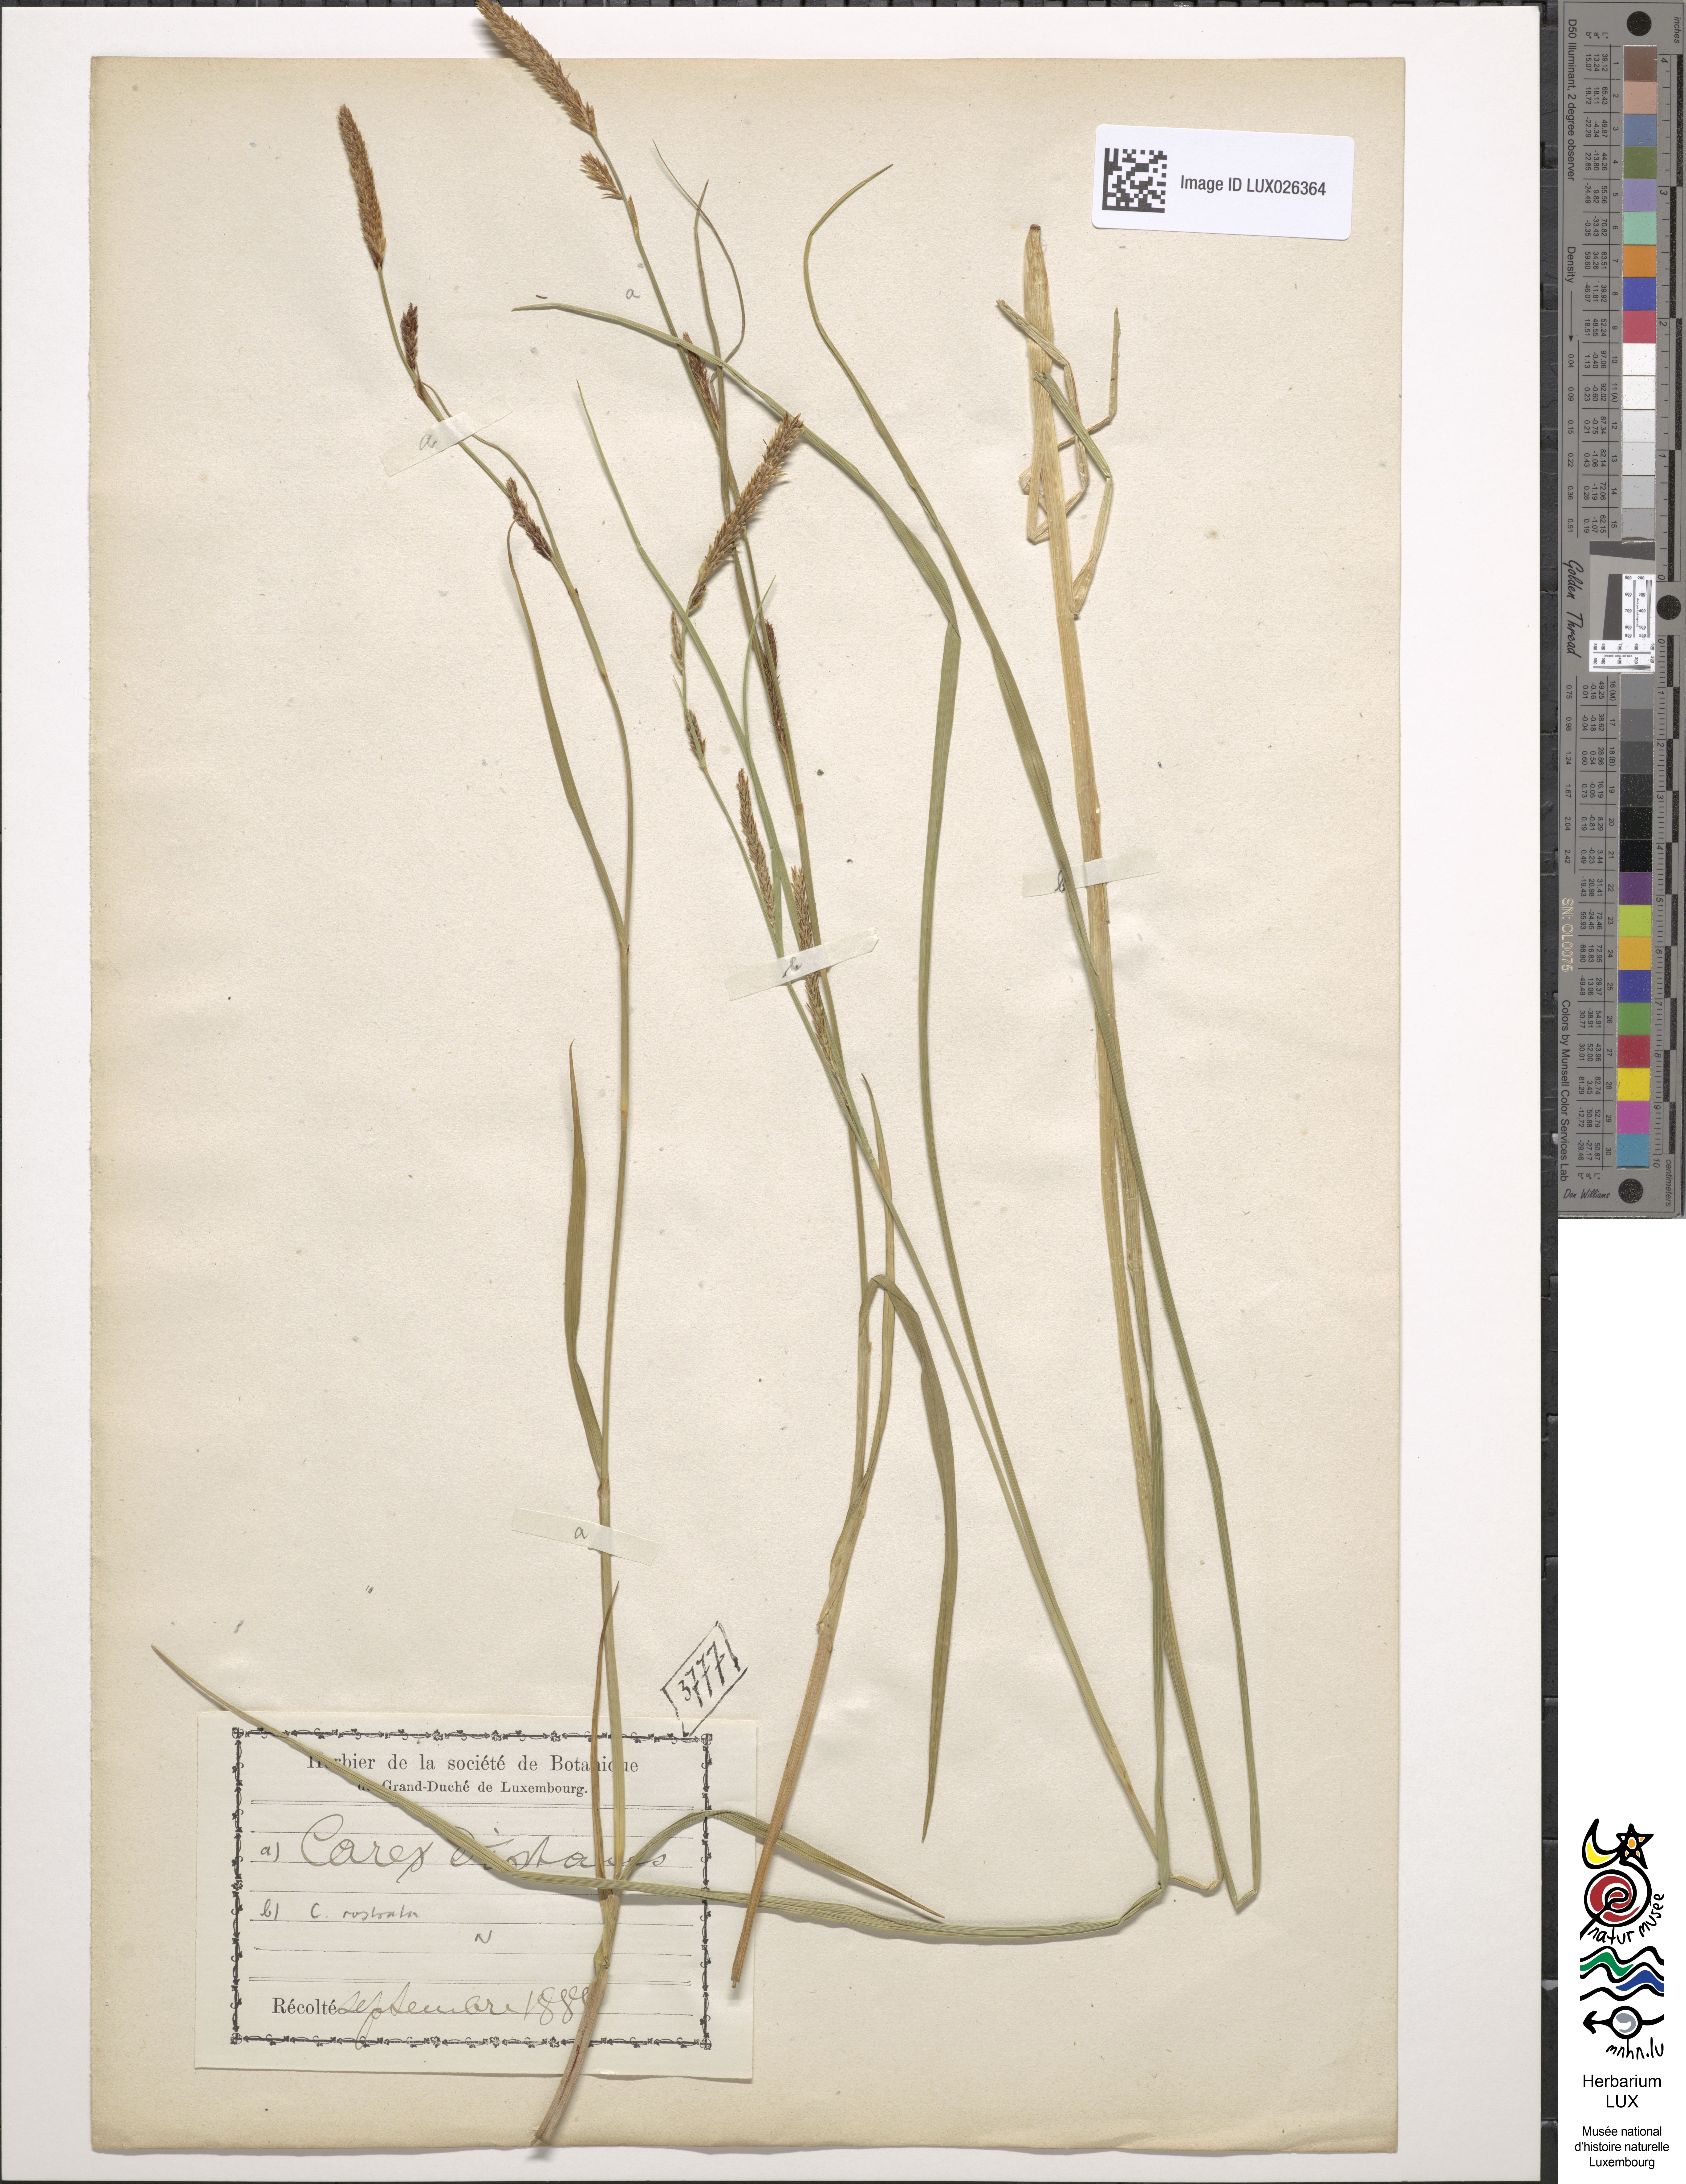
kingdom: Plantae
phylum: Tracheophyta
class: Liliopsida
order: Poales
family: Cyperaceae
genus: Carex
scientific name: Carex distans
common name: Distant sedge
